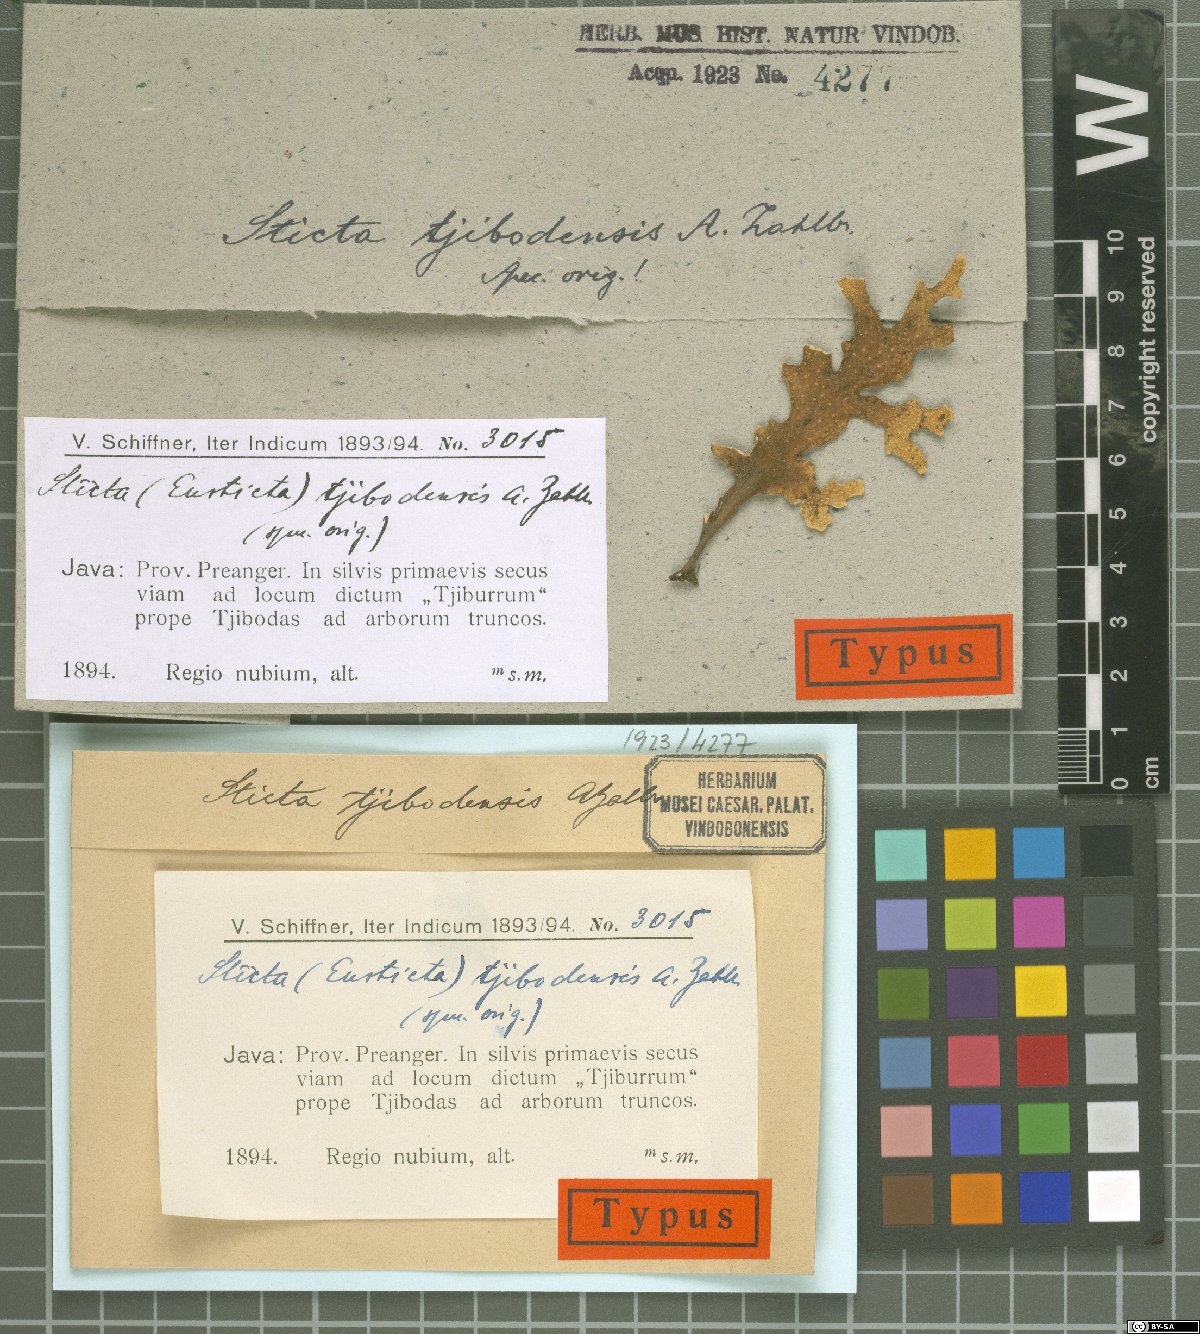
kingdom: Fungi
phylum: Ascomycota
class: Lecanoromycetes
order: Peltigerales
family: Lobariaceae
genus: Sticta
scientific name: Sticta
